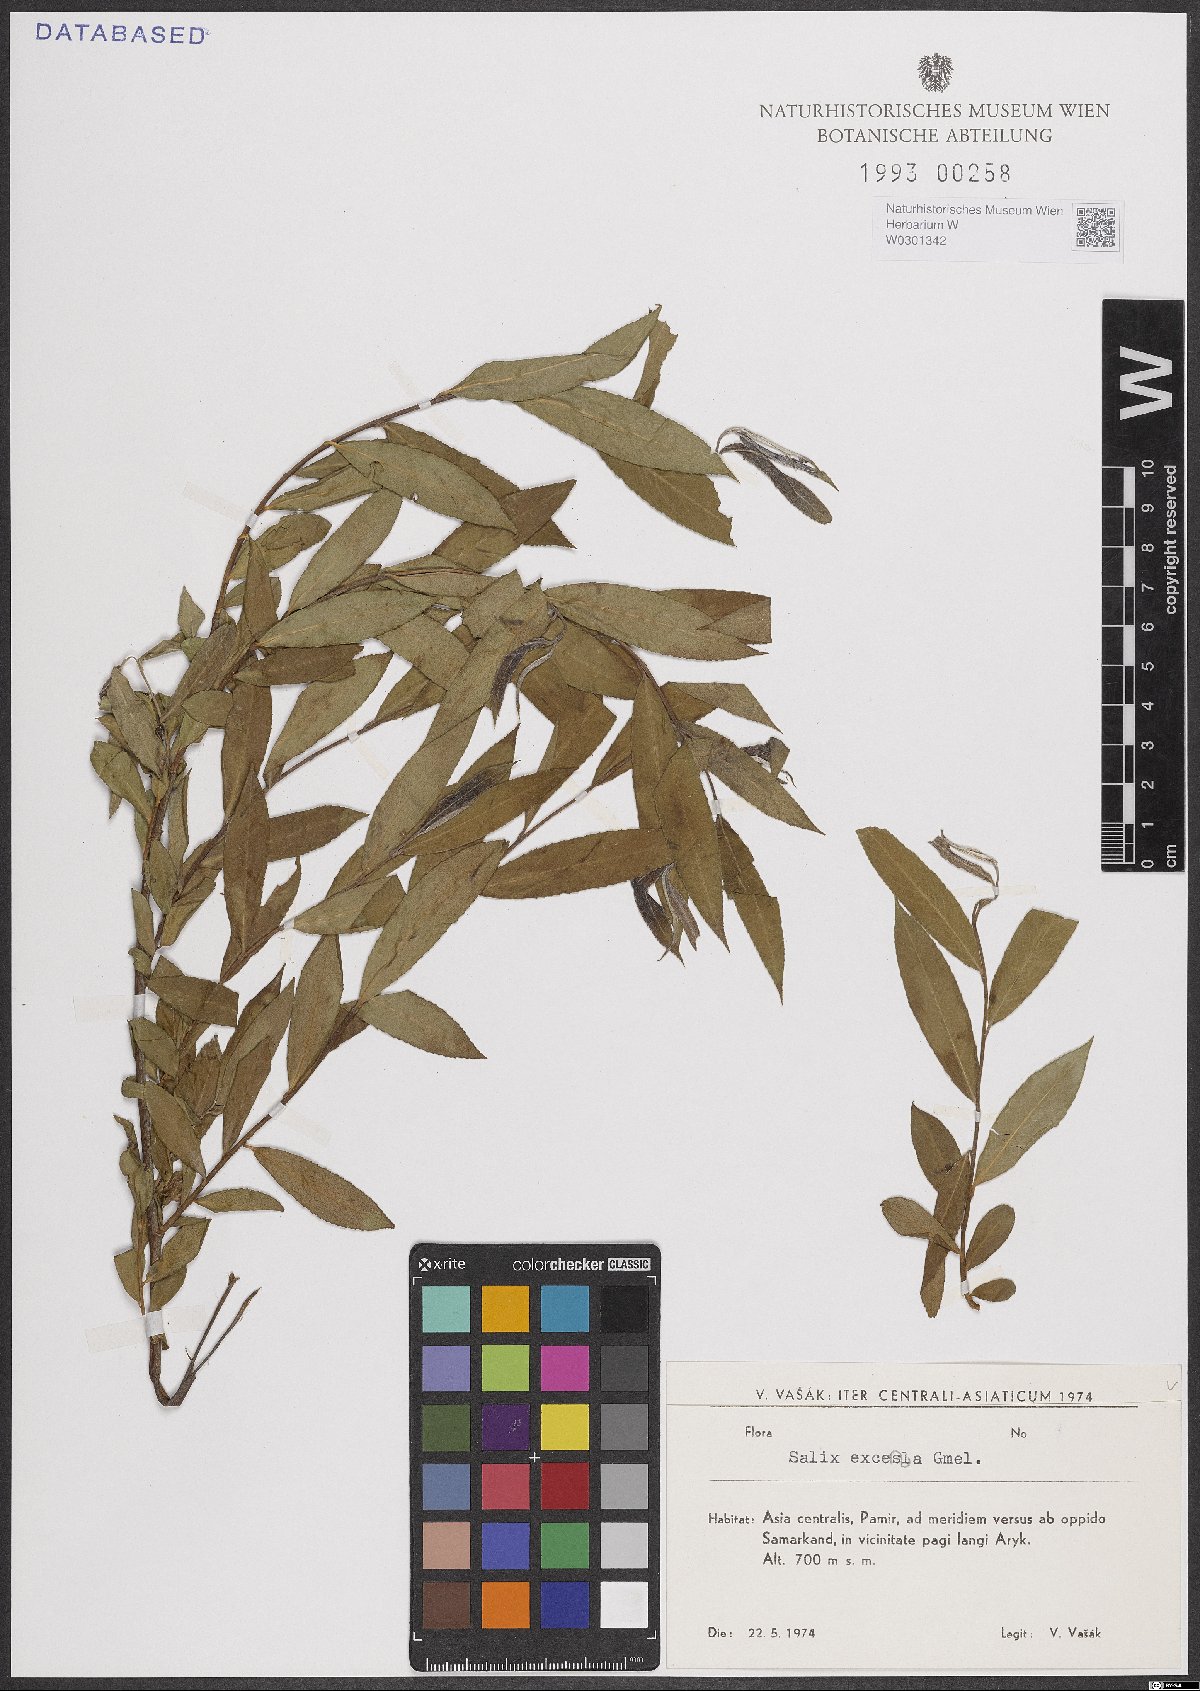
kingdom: Plantae
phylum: Tracheophyta
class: Magnoliopsida
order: Malpighiales
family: Salicaceae
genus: Salix
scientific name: Salix excelsa
